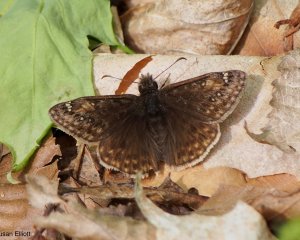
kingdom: Animalia
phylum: Arthropoda
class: Insecta
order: Lepidoptera
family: Hesperiidae
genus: Gesta
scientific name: Gesta
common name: Juvenal's Duskywing
